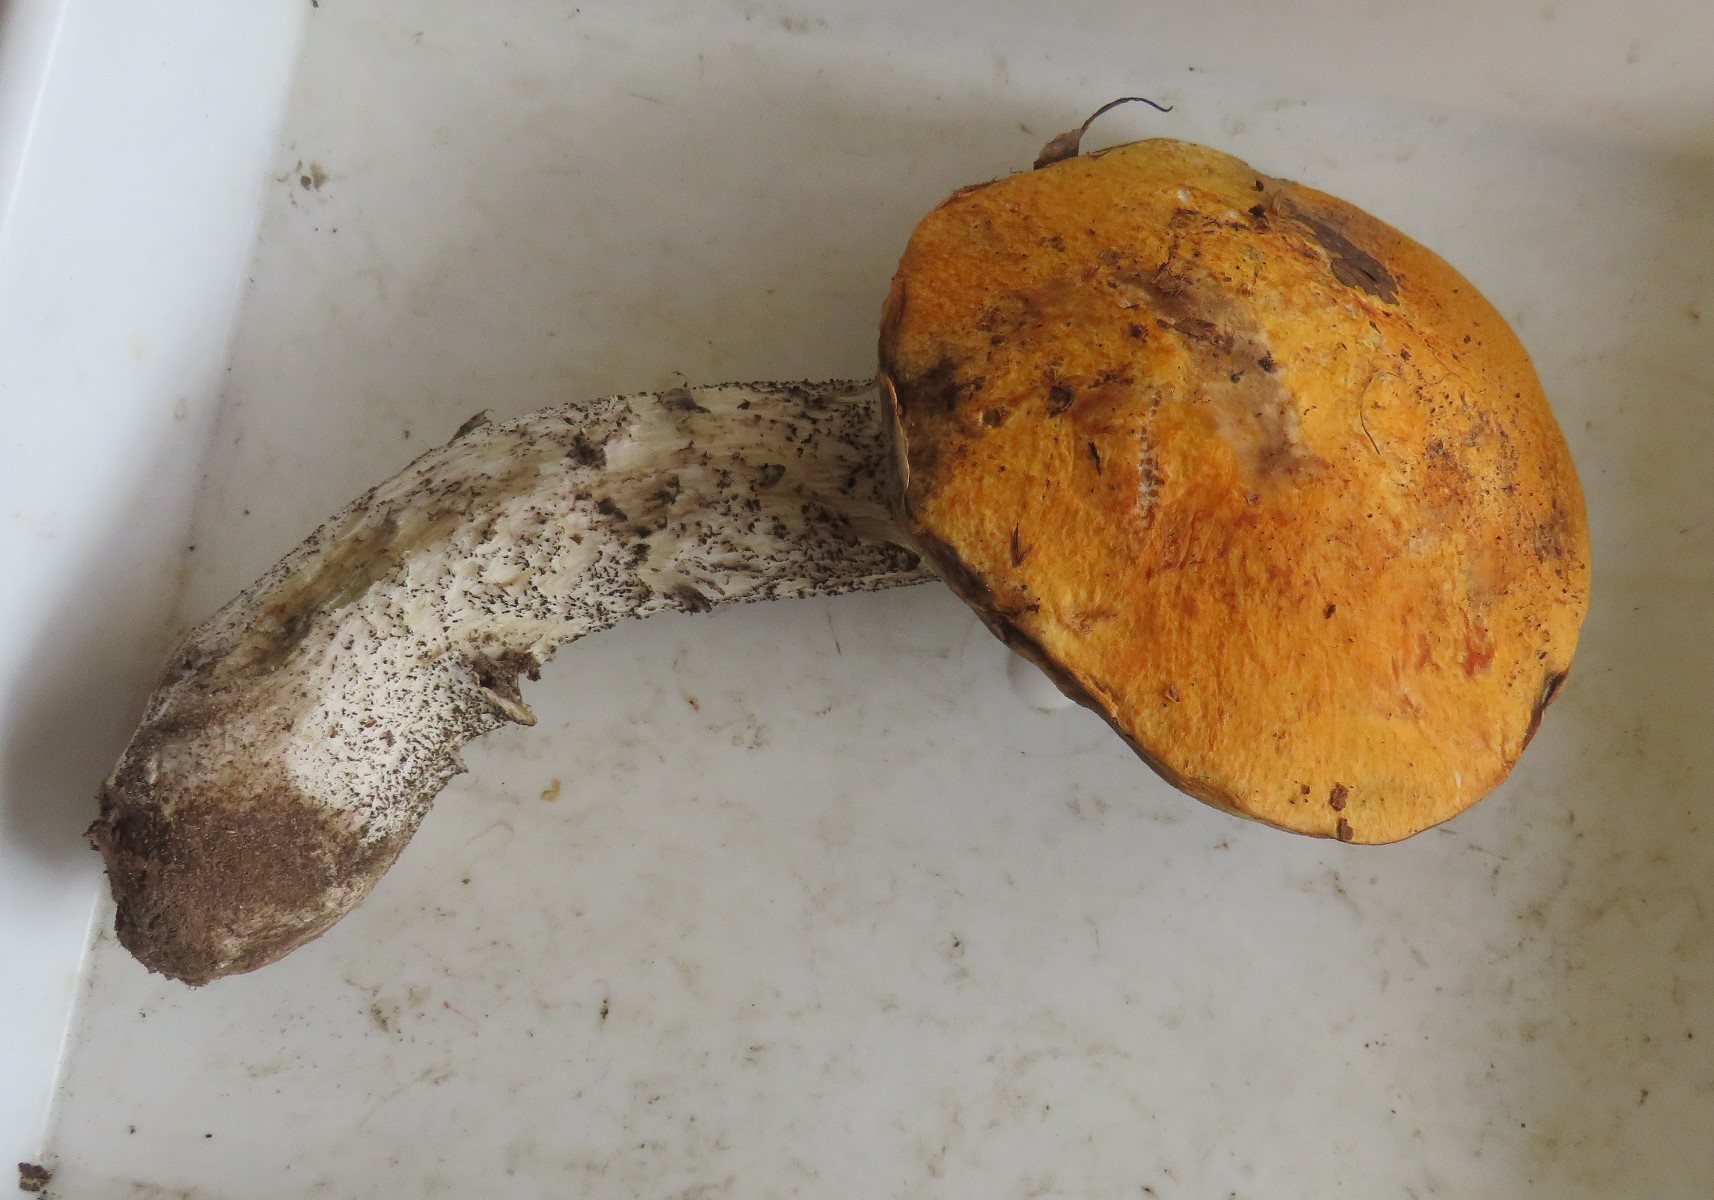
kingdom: Fungi
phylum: Basidiomycota
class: Agaricomycetes
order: Boletales
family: Boletaceae
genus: Leccinum
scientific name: Leccinum versipelle
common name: orange skælrørhat
